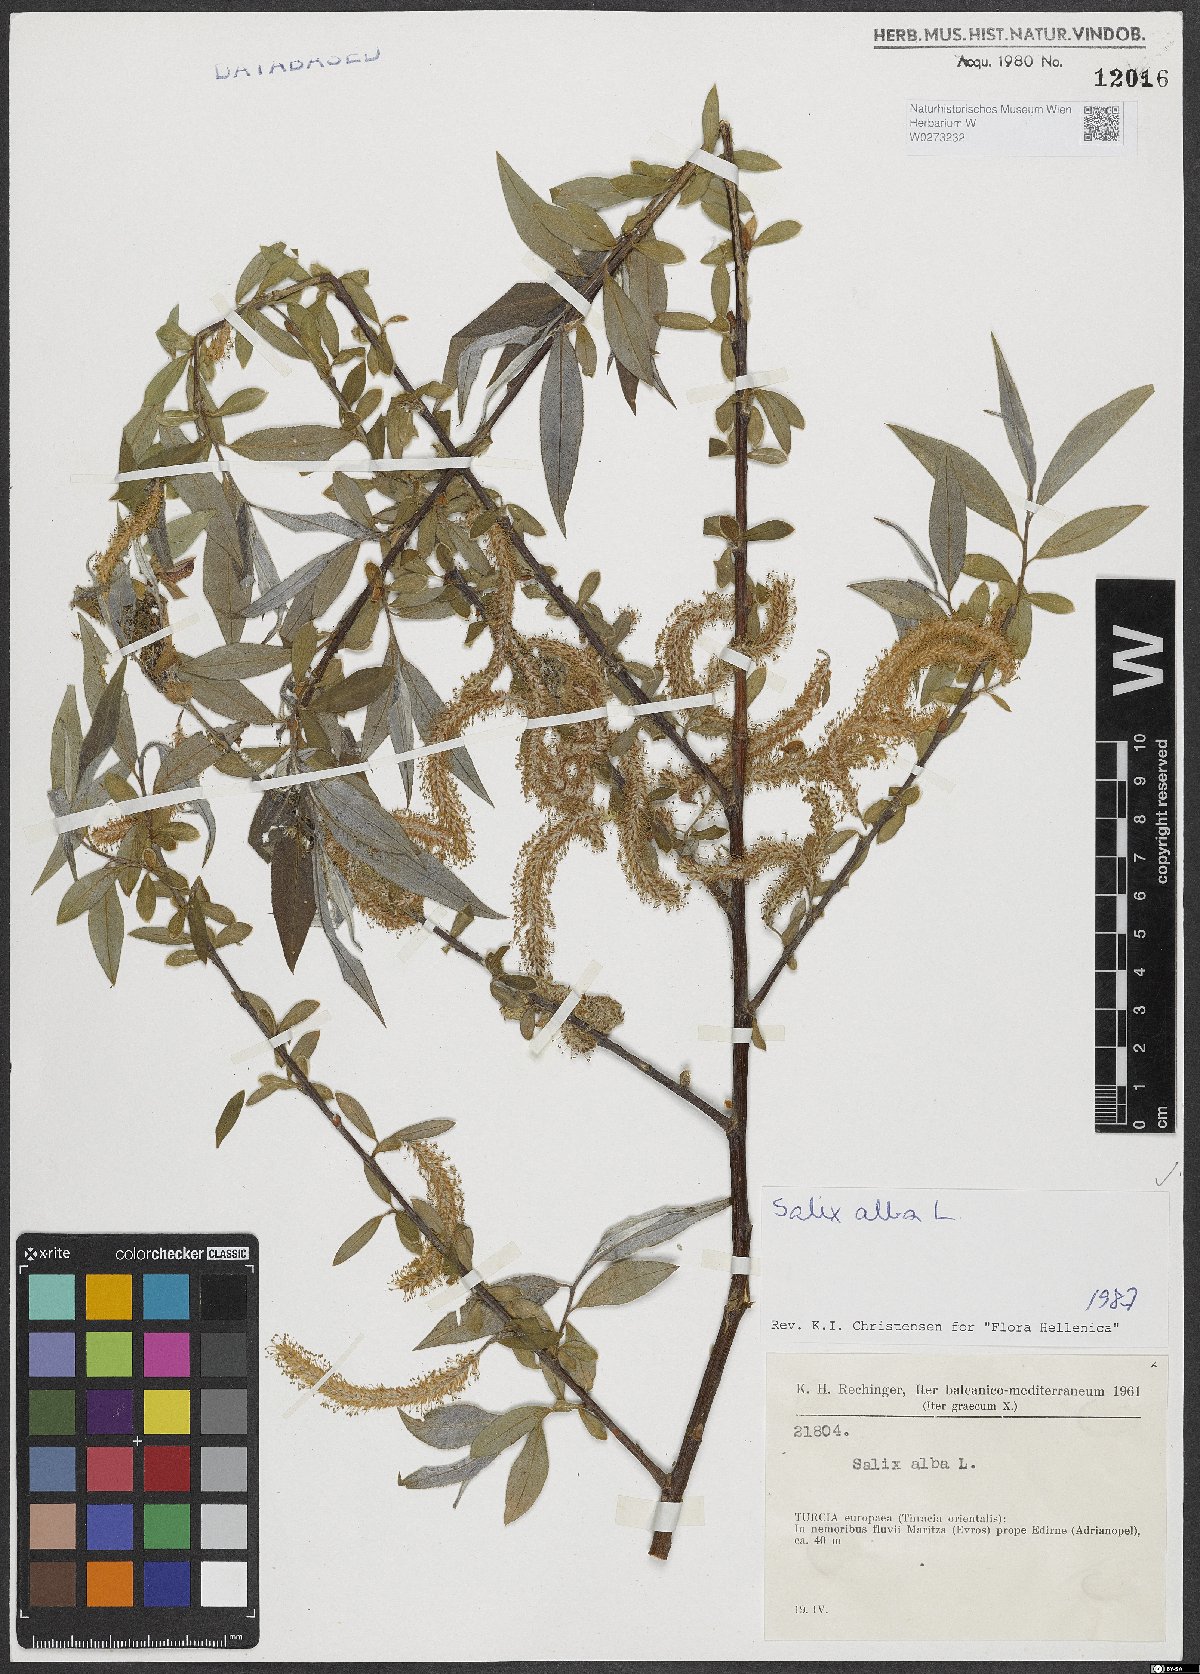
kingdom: Plantae
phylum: Tracheophyta
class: Magnoliopsida
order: Malpighiales
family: Salicaceae
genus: Salix
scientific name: Salix alba
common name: White willow
